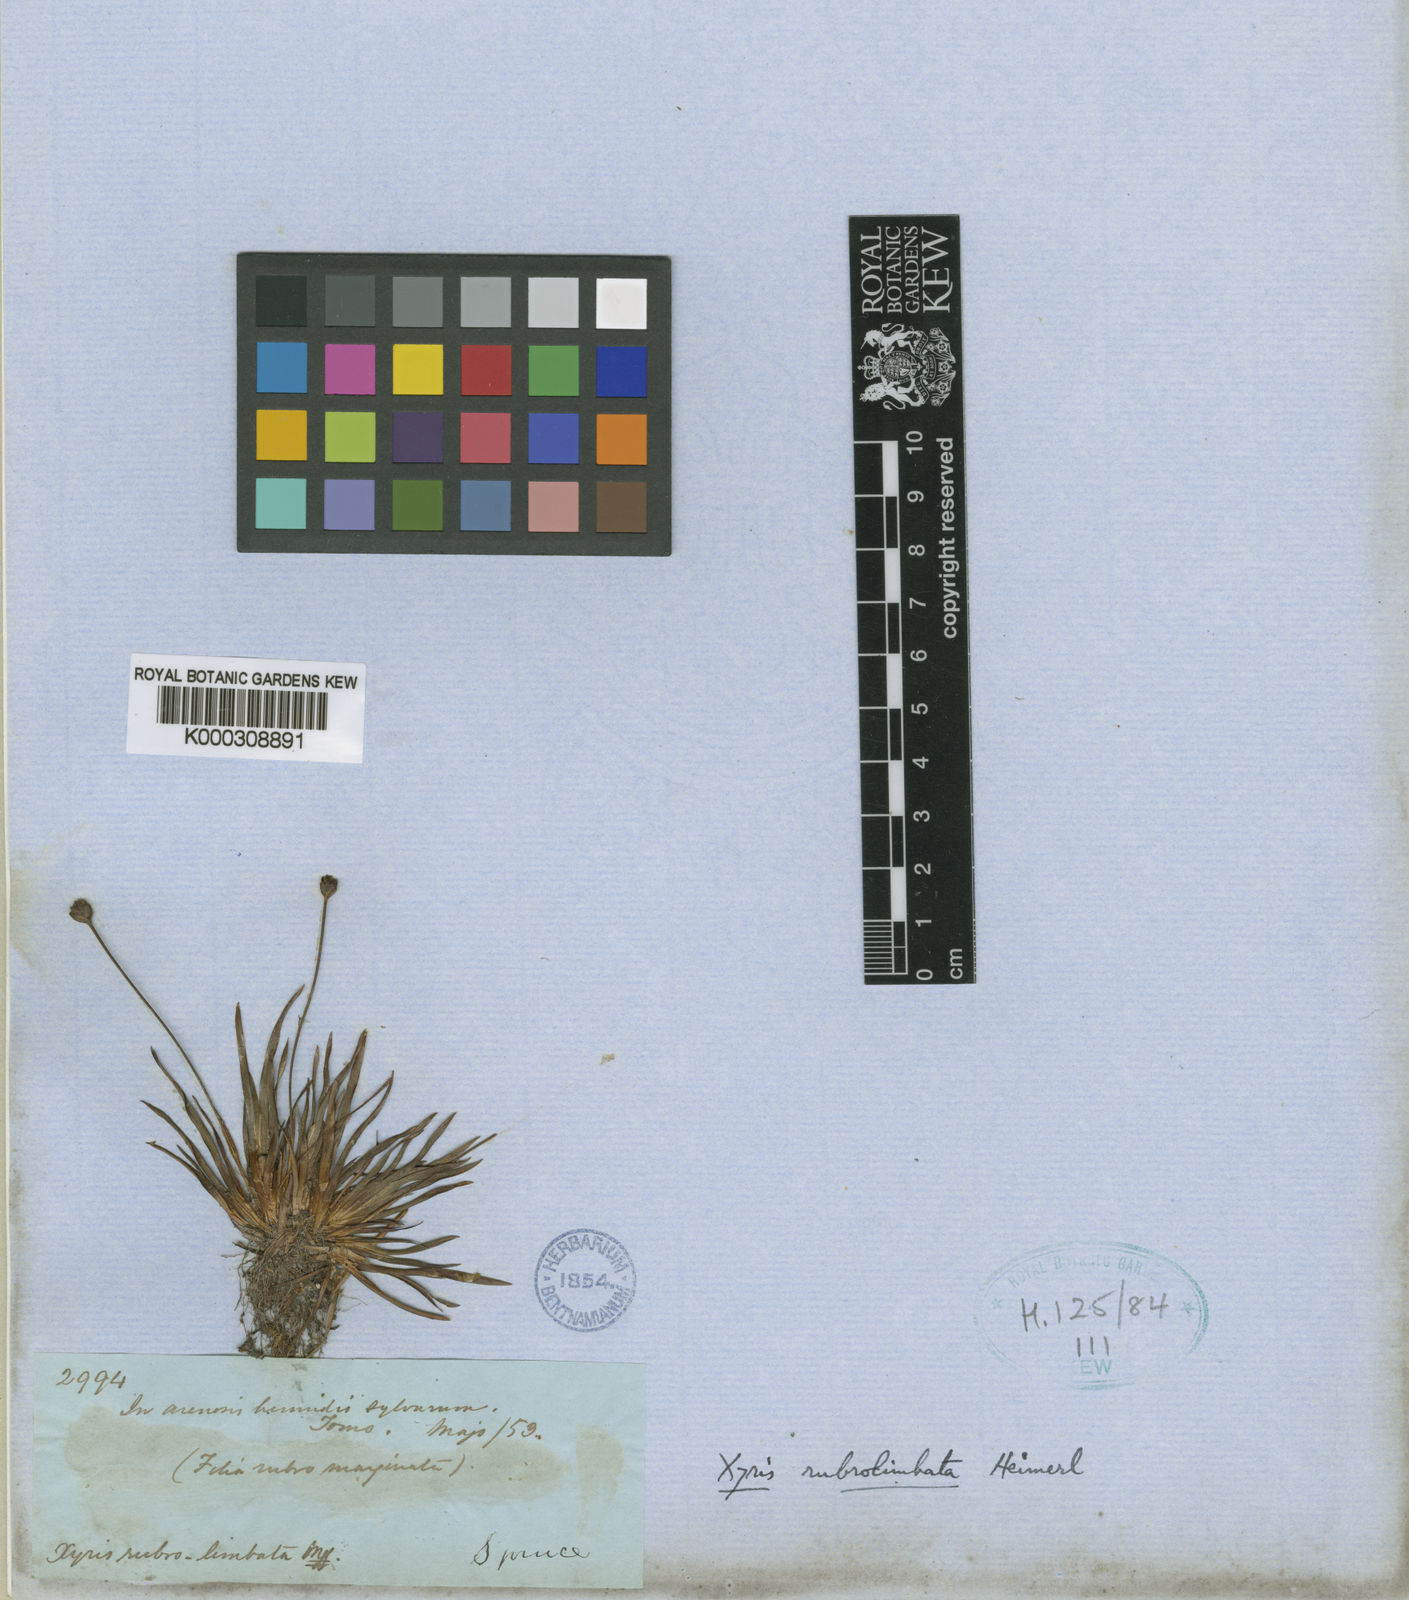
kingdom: Plantae
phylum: Tracheophyta
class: Liliopsida
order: Poales
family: Xyridaceae
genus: Xyris
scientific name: Xyris rubrolimbata
